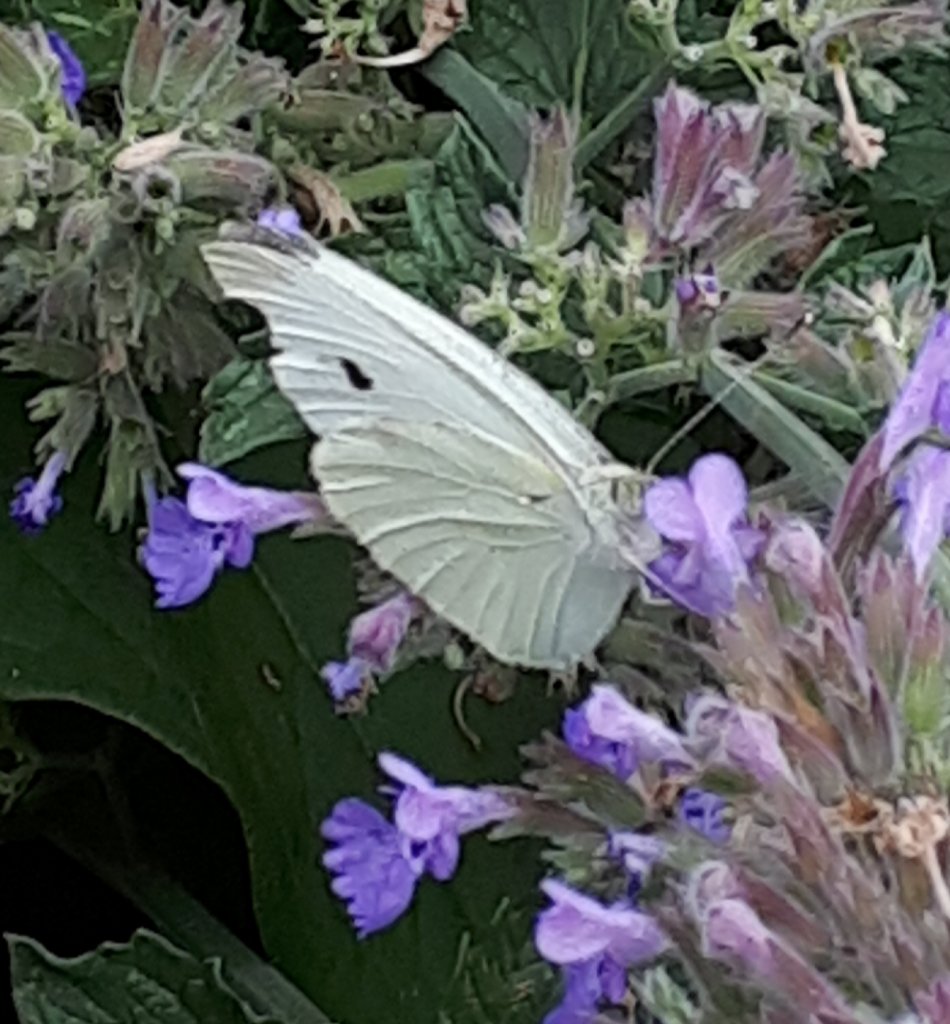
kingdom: Animalia
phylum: Arthropoda
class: Insecta
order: Lepidoptera
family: Pieridae
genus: Pieris
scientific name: Pieris rapae
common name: Cabbage White
